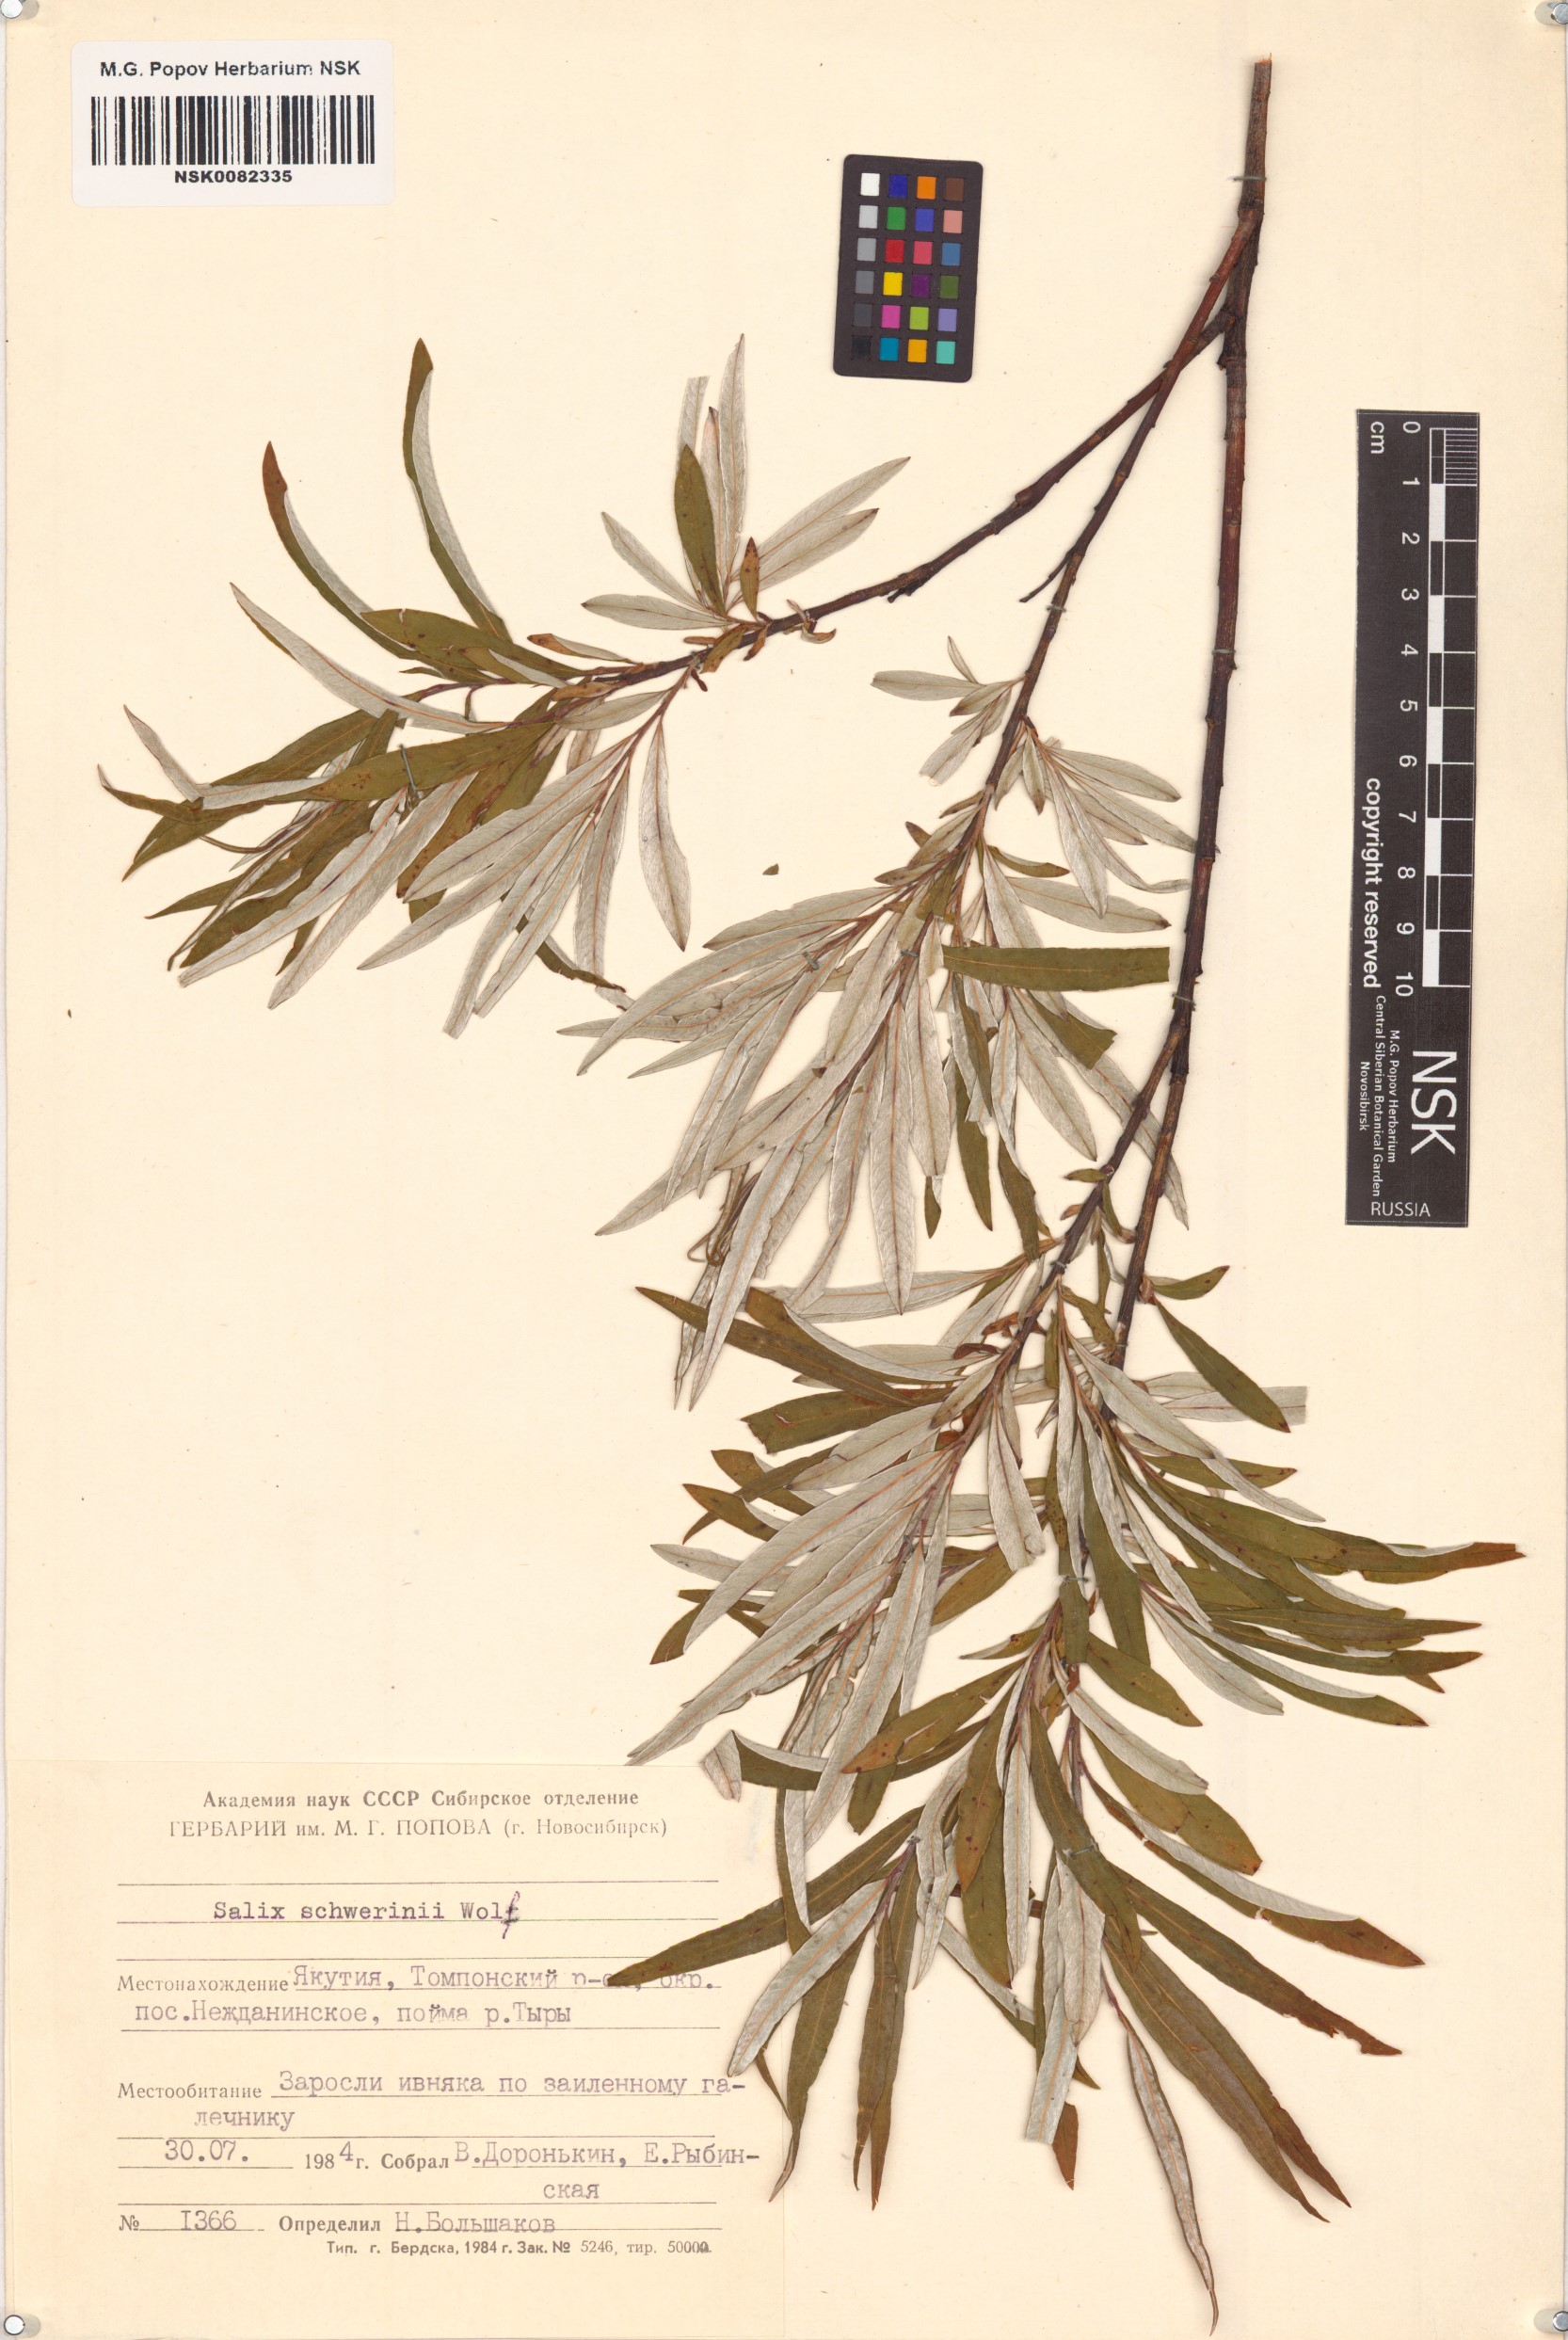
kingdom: Plantae
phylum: Tracheophyta
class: Magnoliopsida
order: Malpighiales
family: Salicaceae
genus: Salix
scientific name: Salix schwerinii
